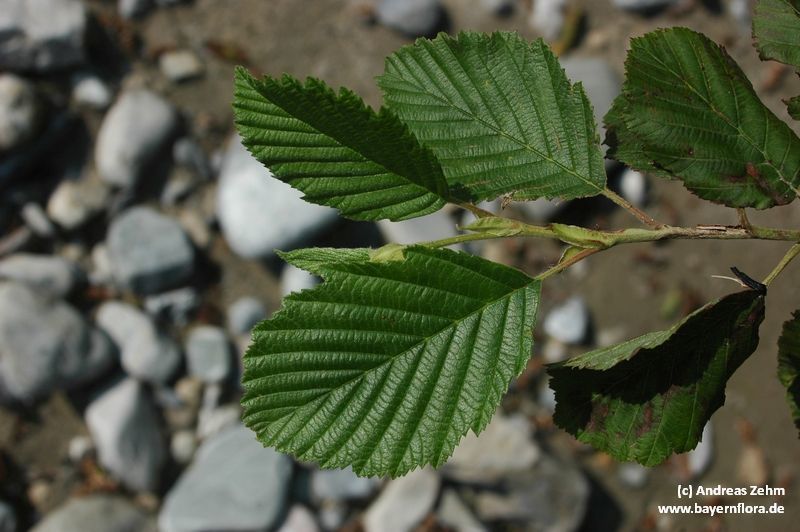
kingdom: Plantae
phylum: Tracheophyta
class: Magnoliopsida
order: Fagales
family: Betulaceae
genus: Alnus
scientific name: Alnus incana
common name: Grey alder
